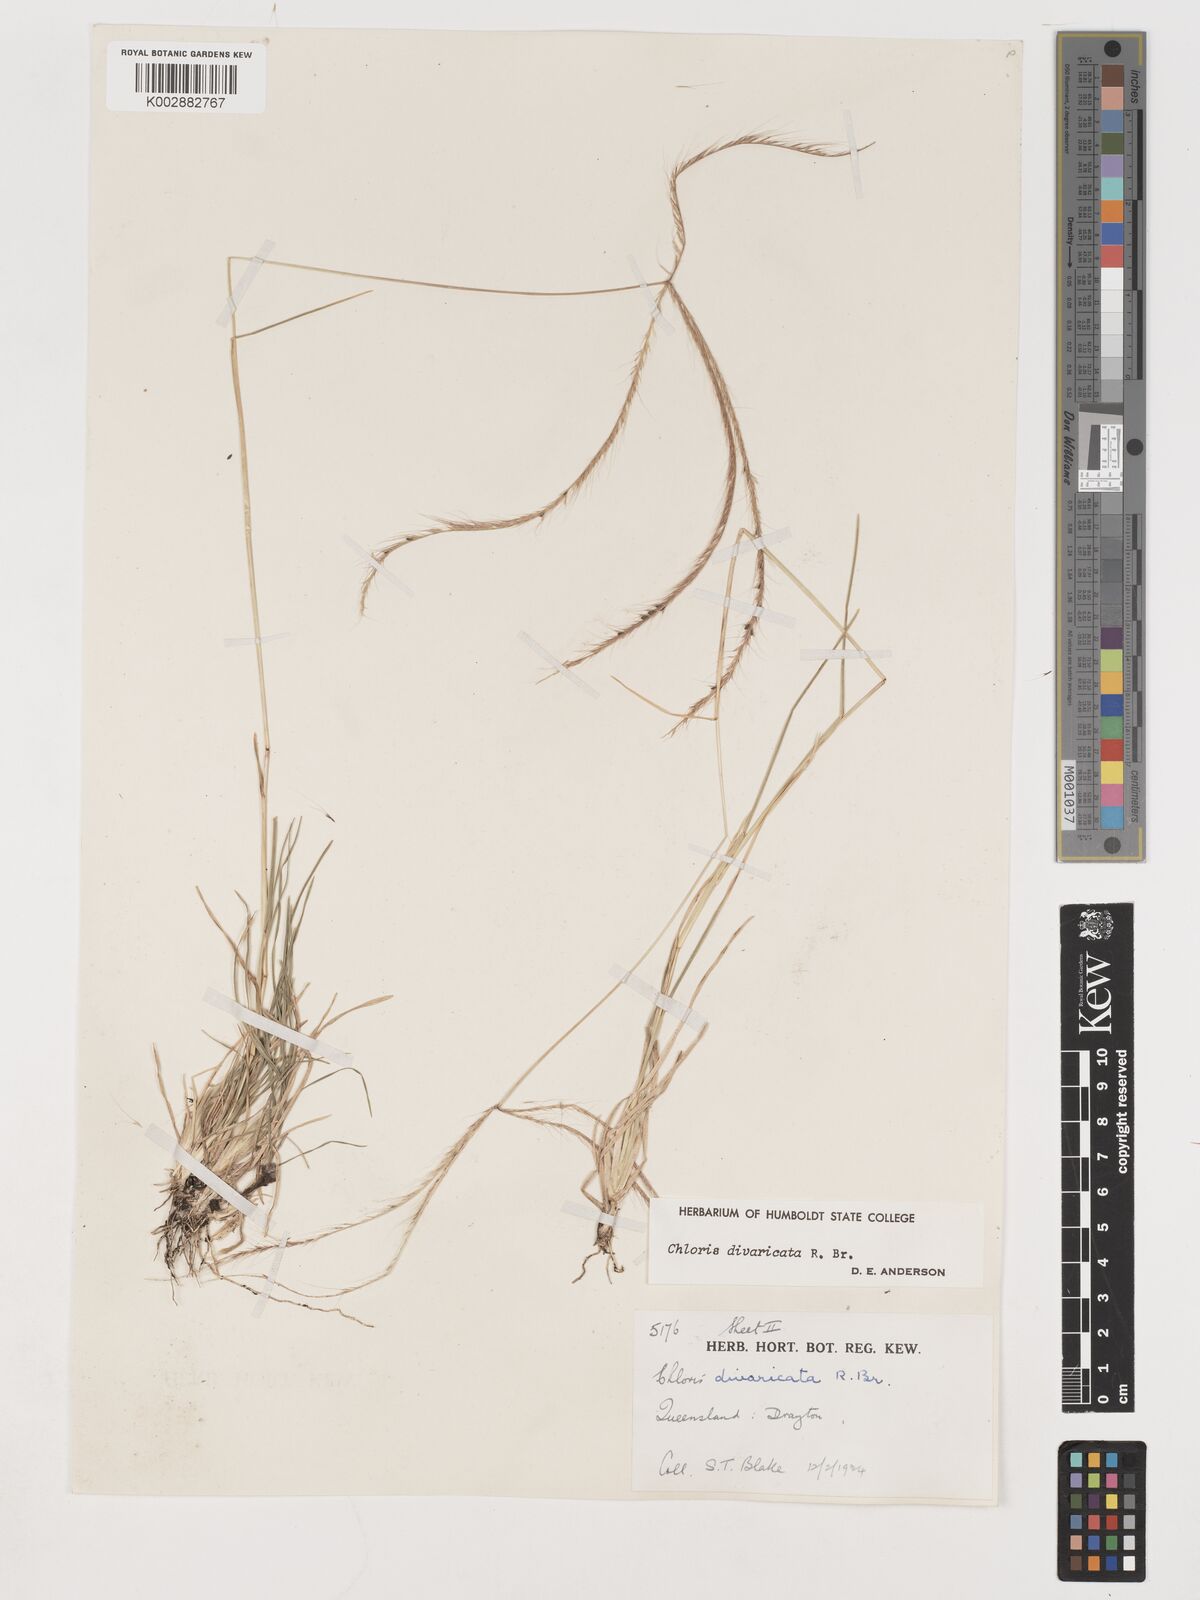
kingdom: Plantae
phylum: Tracheophyta
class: Liliopsida
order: Poales
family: Poaceae
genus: Chloris
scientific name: Chloris divaricata
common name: Spreading windmill grass
